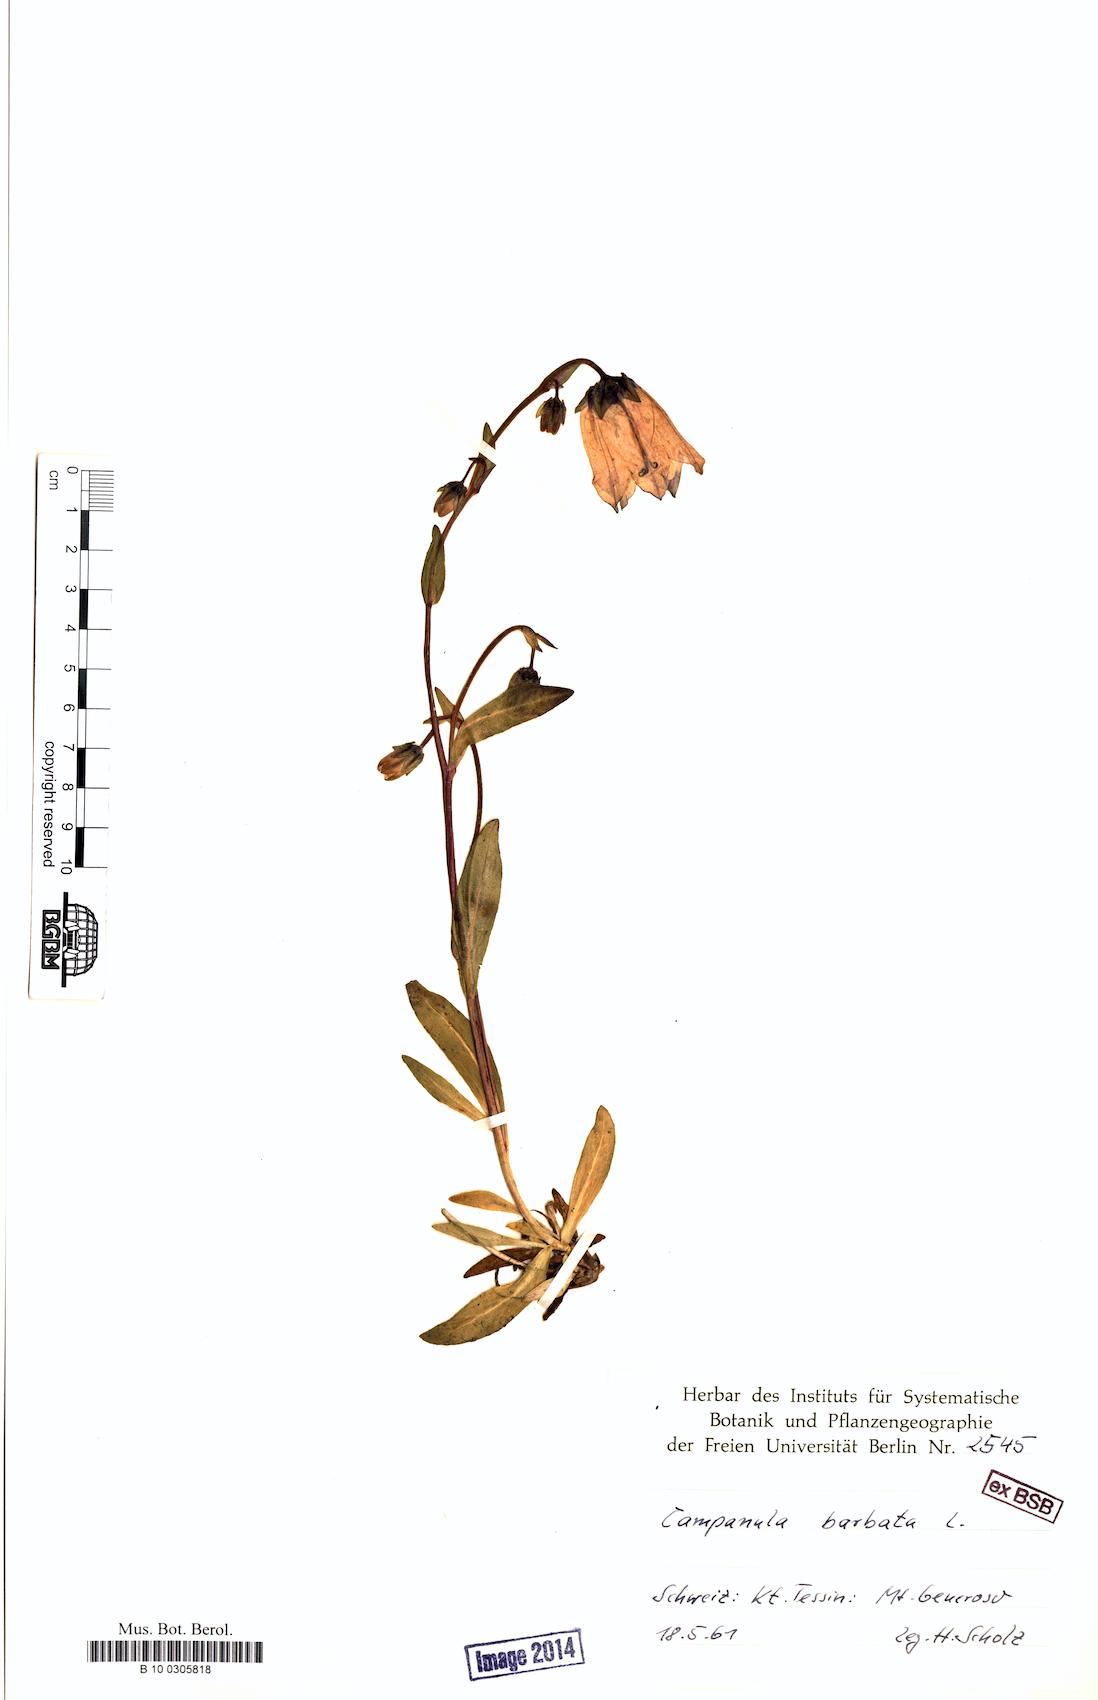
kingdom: Plantae
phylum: Tracheophyta
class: Magnoliopsida
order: Asterales
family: Campanulaceae
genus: Campanula
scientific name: Campanula barbata
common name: Bearded bellflower
